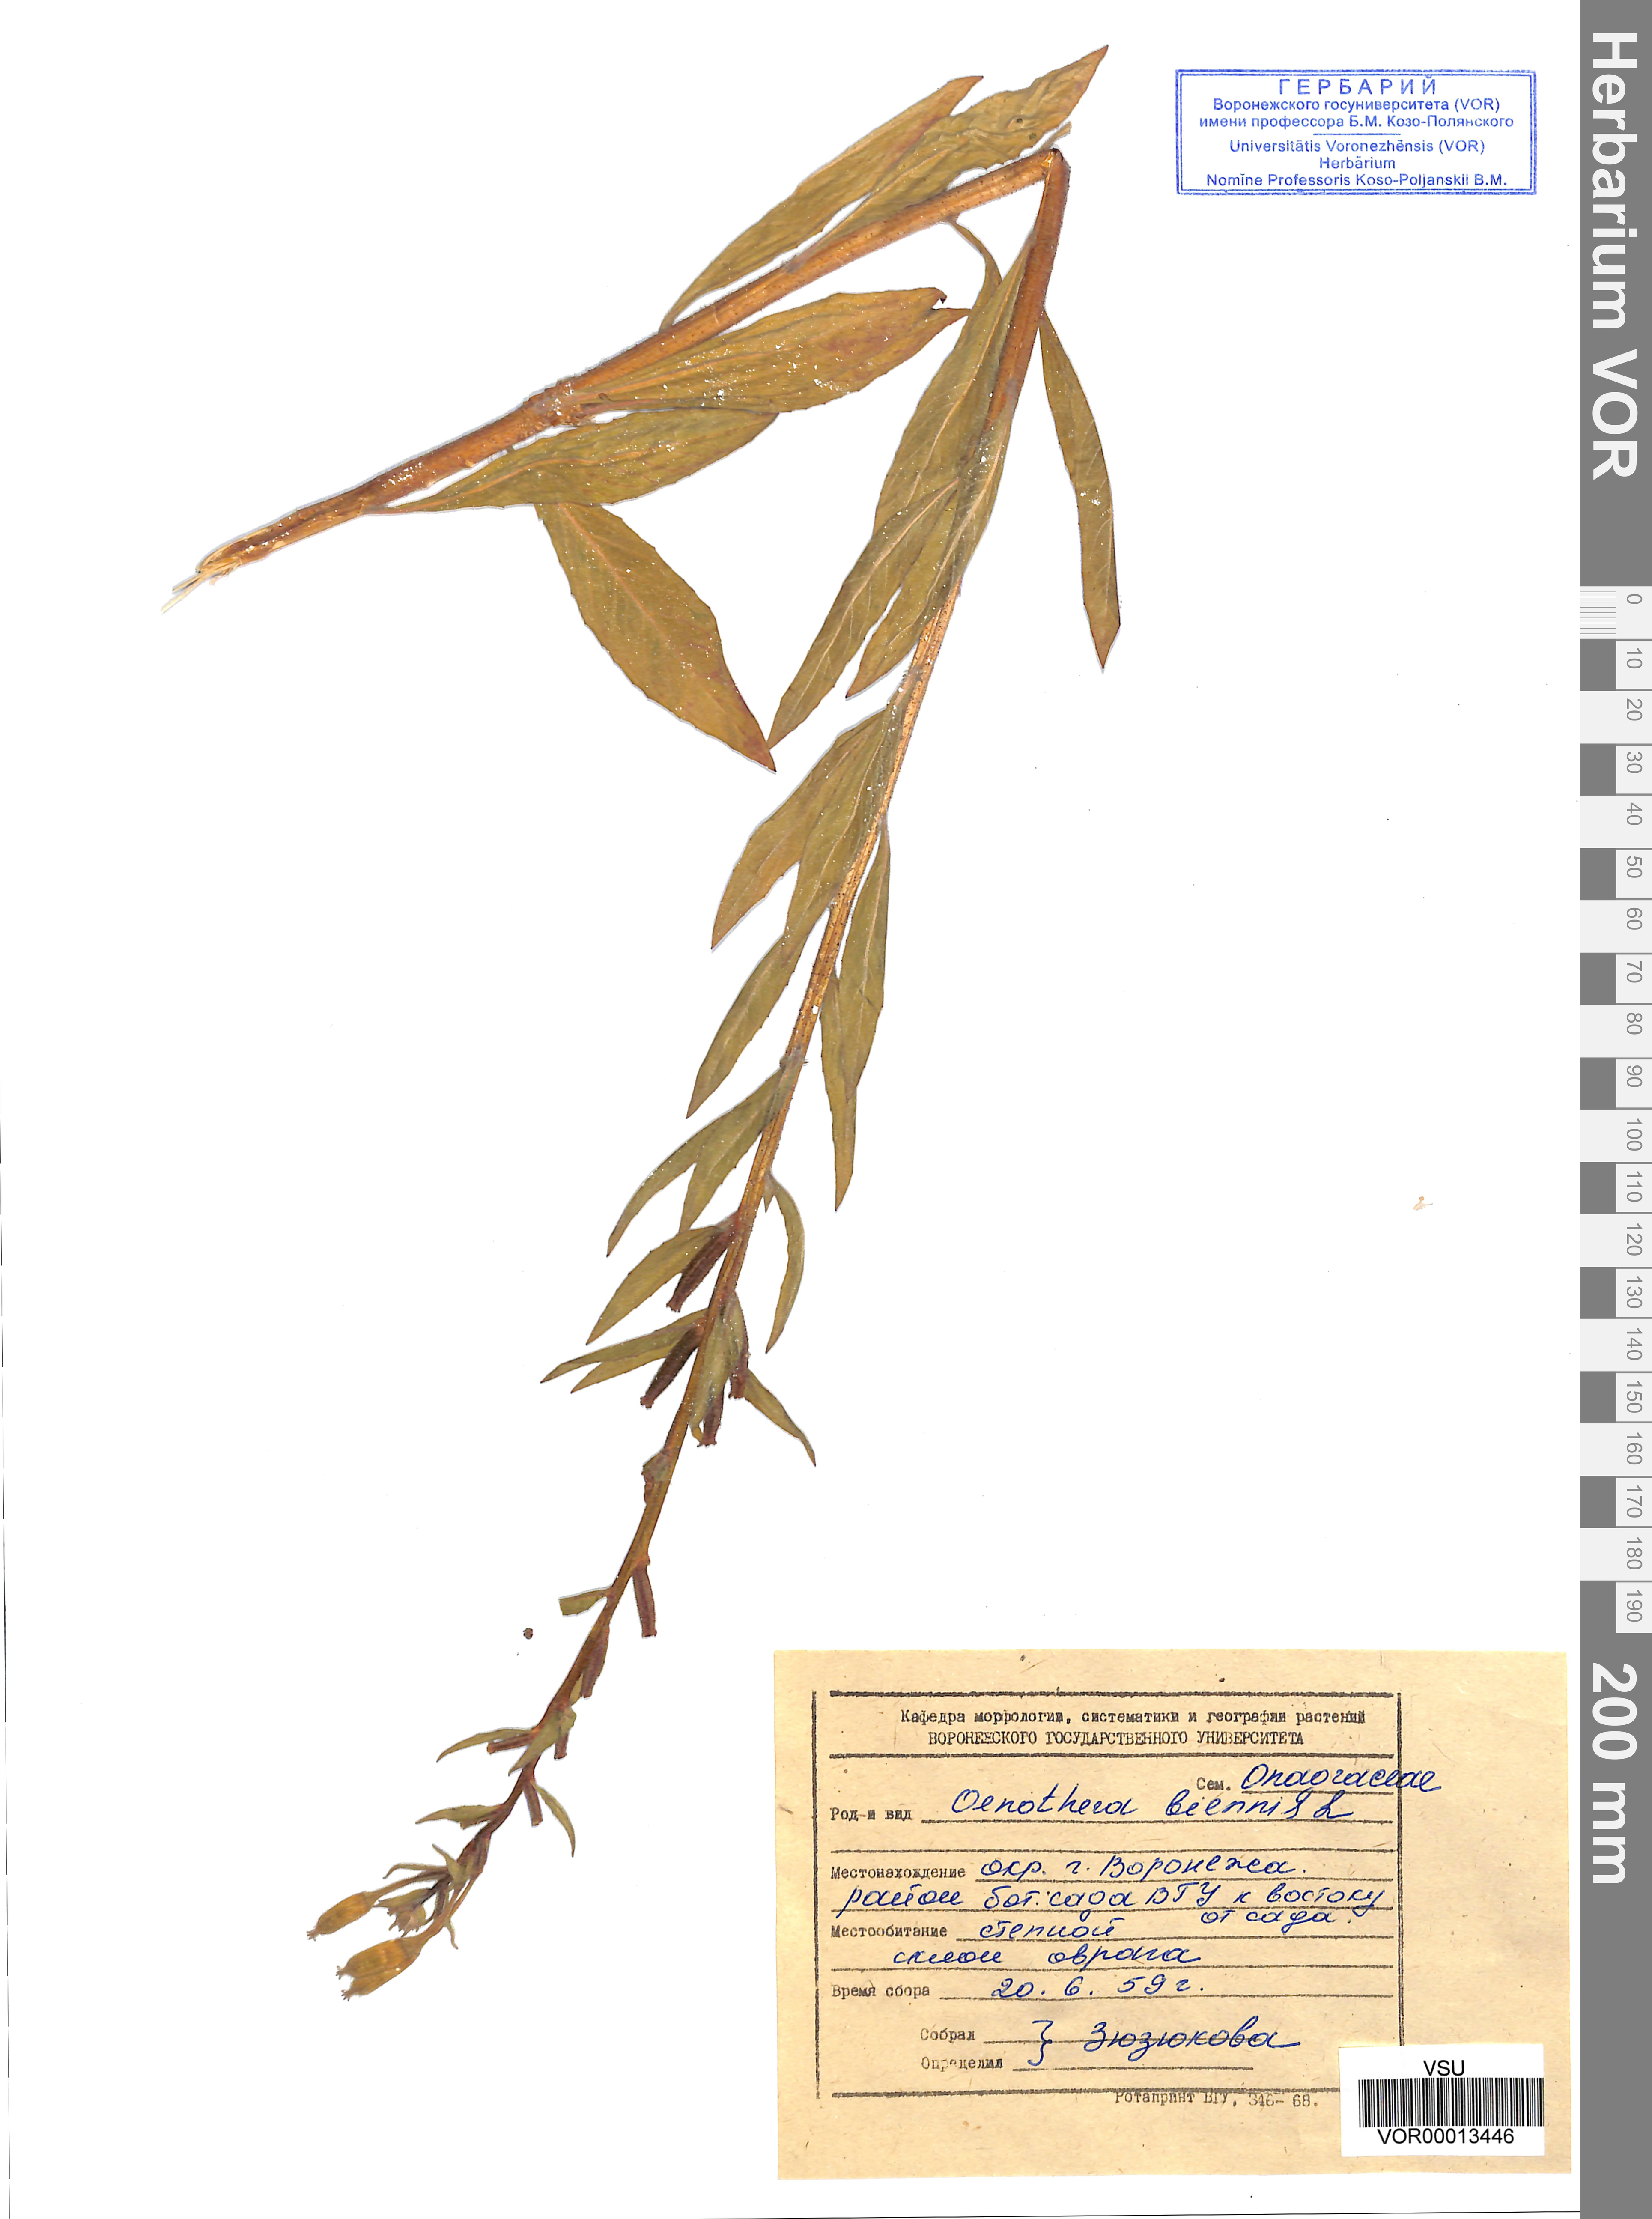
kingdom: Plantae
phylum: Tracheophyta
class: Magnoliopsida
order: Myrtales
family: Onagraceae
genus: Oenothera
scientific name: Oenothera biennis
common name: Common evening-primrose
